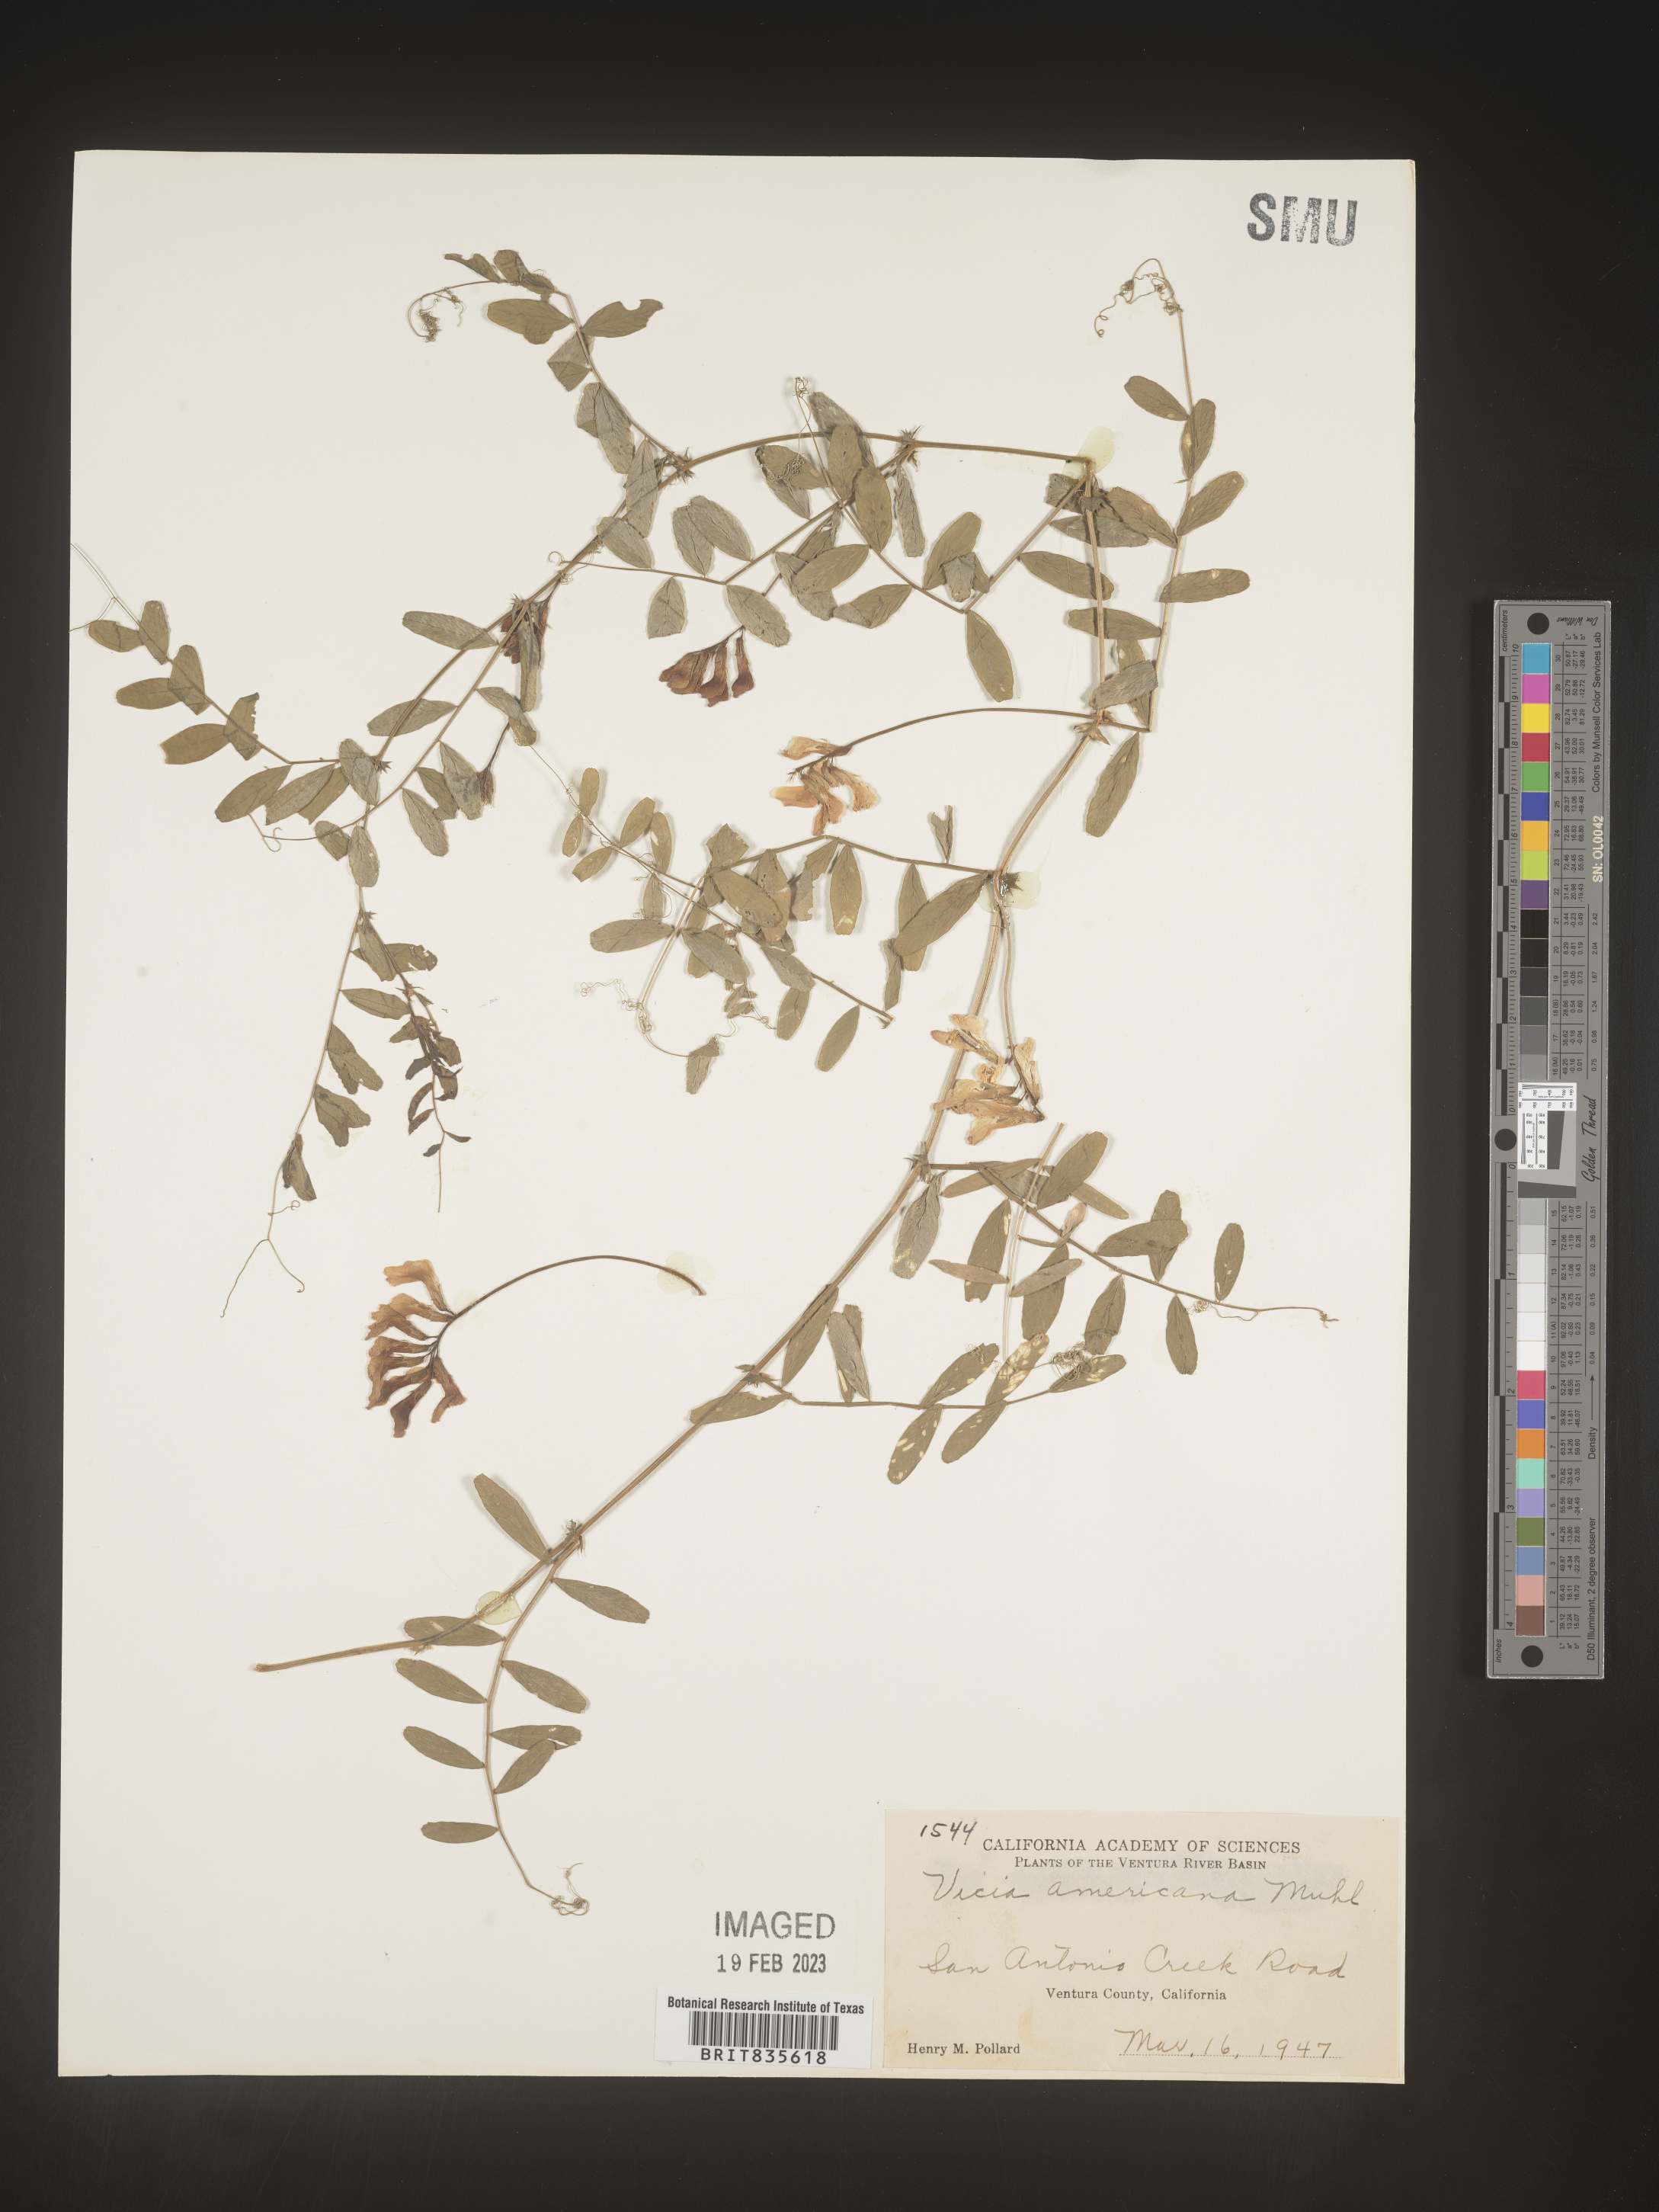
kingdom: Plantae
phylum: Tracheophyta
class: Magnoliopsida
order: Fabales
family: Fabaceae
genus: Vicia
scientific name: Vicia americana
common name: American vetch
